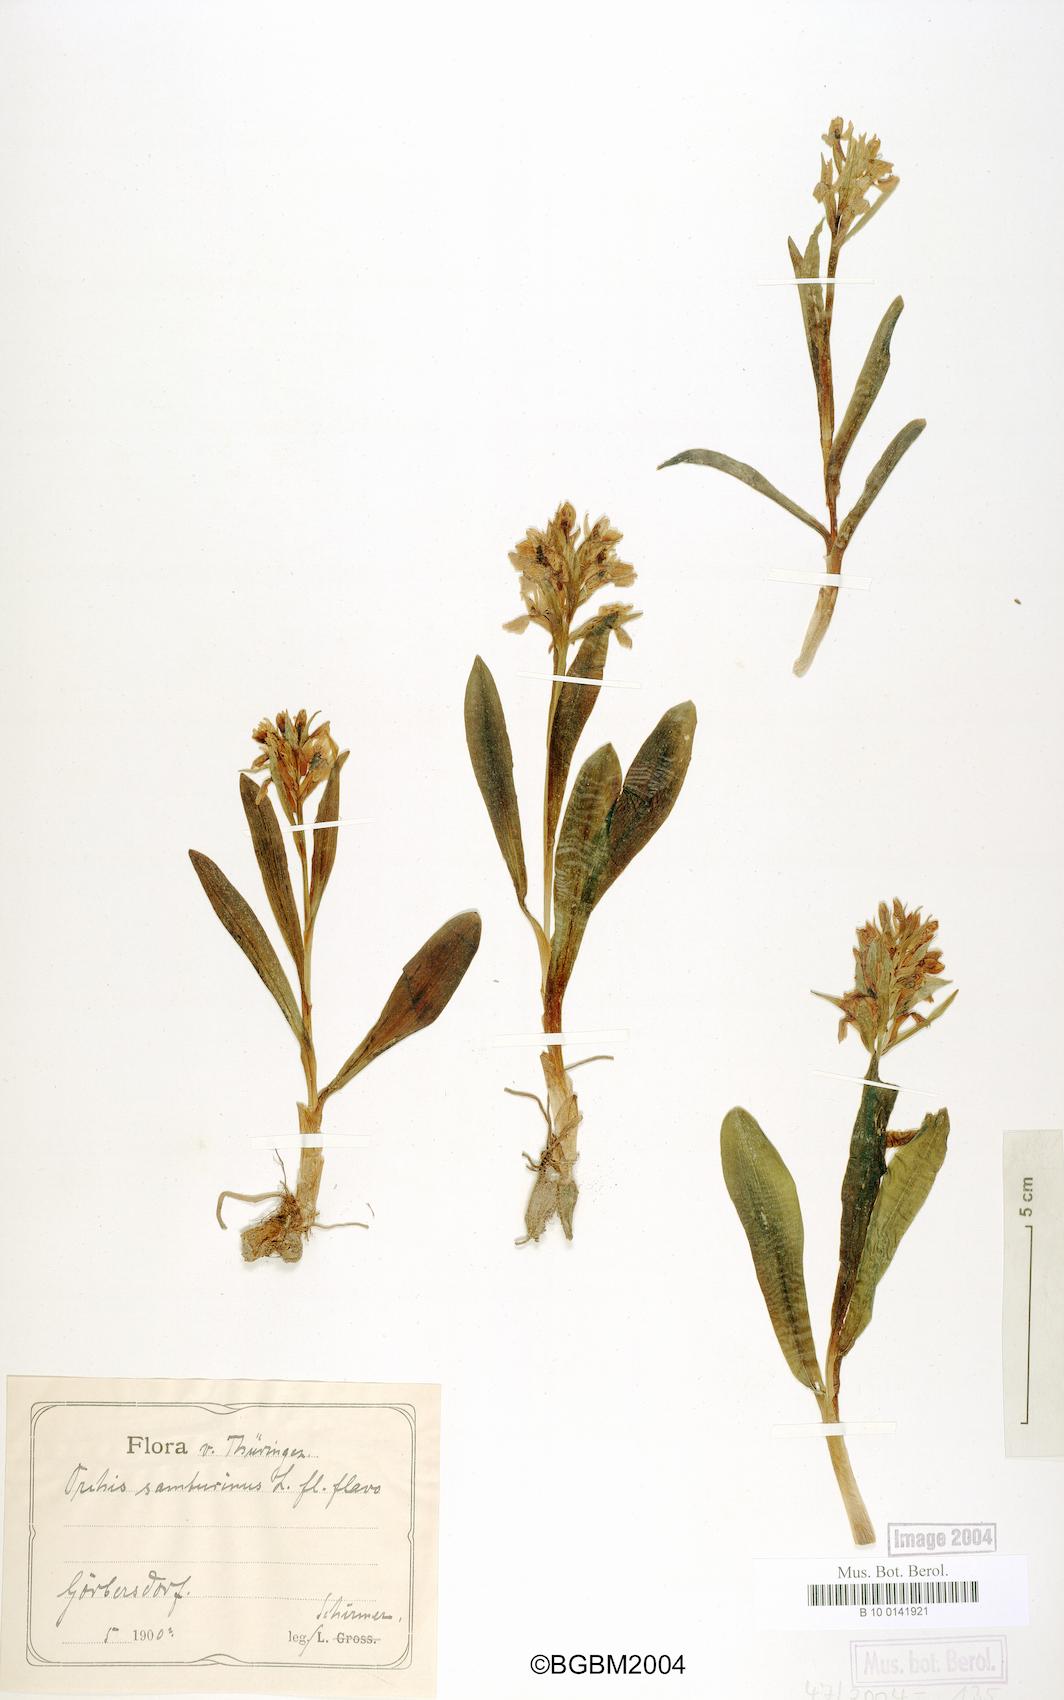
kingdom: Plantae
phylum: Tracheophyta
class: Liliopsida
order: Asparagales
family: Orchidaceae
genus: Dactylorhiza
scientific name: Dactylorhiza sambucina
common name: Elder-flowered orchid
